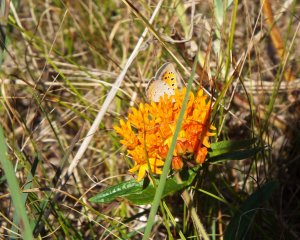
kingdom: Animalia
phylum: Arthropoda
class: Insecta
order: Lepidoptera
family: Lycaenidae
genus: Lycaena
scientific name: Lycaena phlaeas
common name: American Copper
